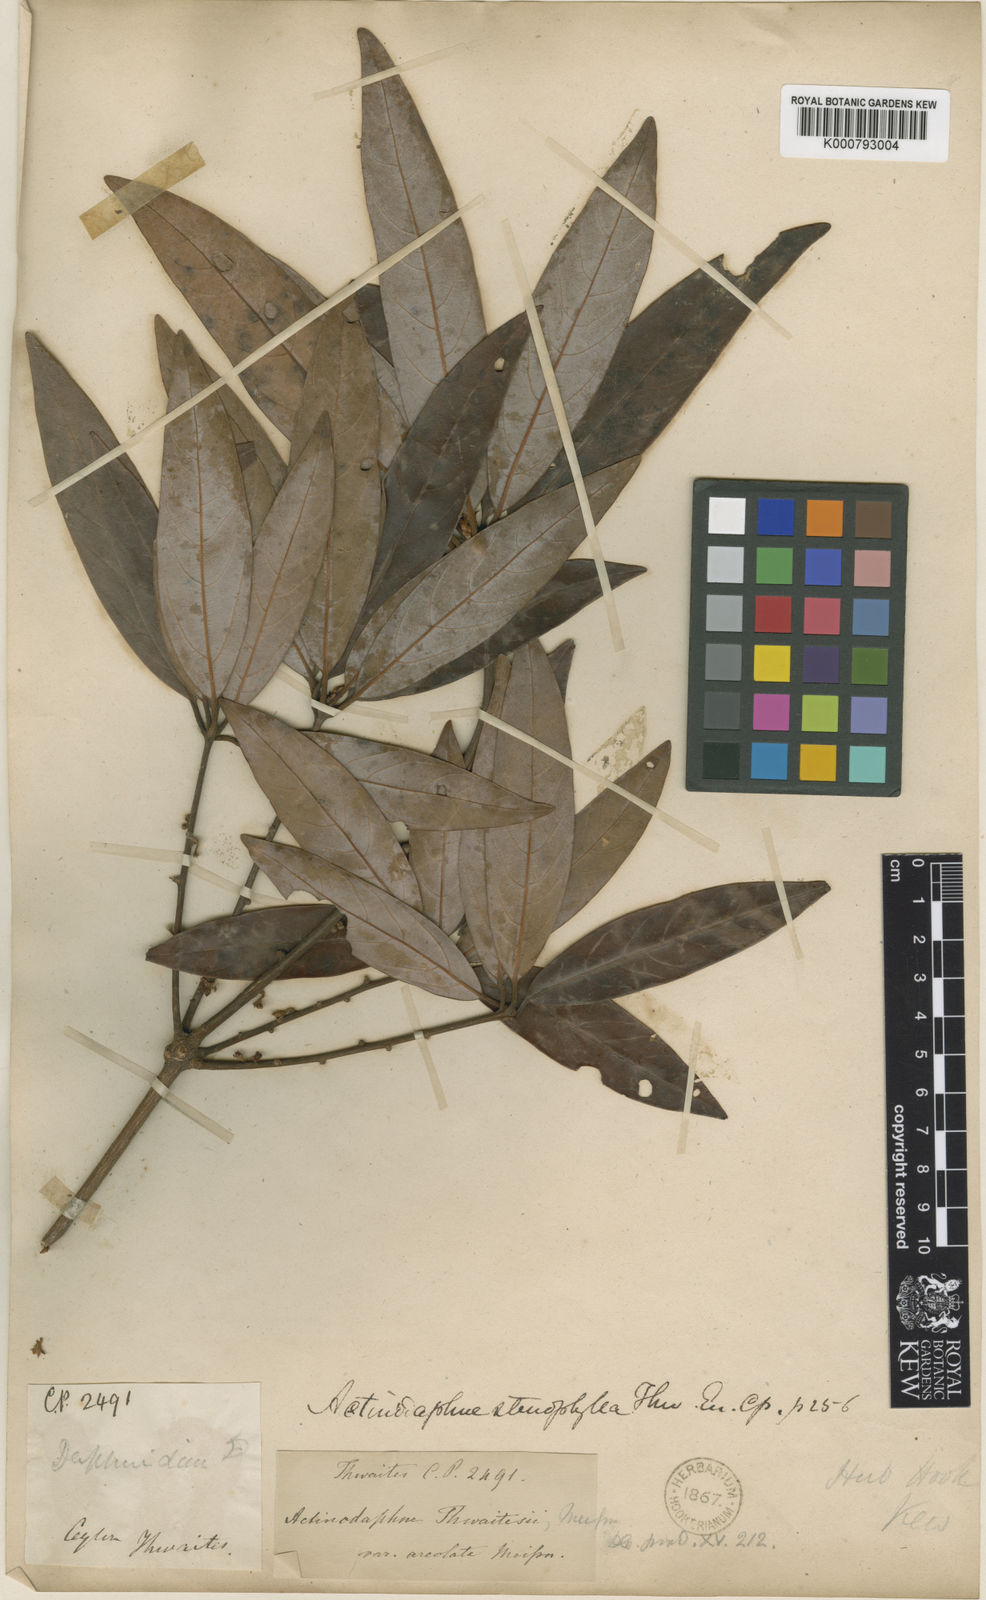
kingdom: Plantae
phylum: Tracheophyta
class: Magnoliopsida
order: Laurales
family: Lauraceae
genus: Actinodaphne
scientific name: Actinodaphne stenophylla
